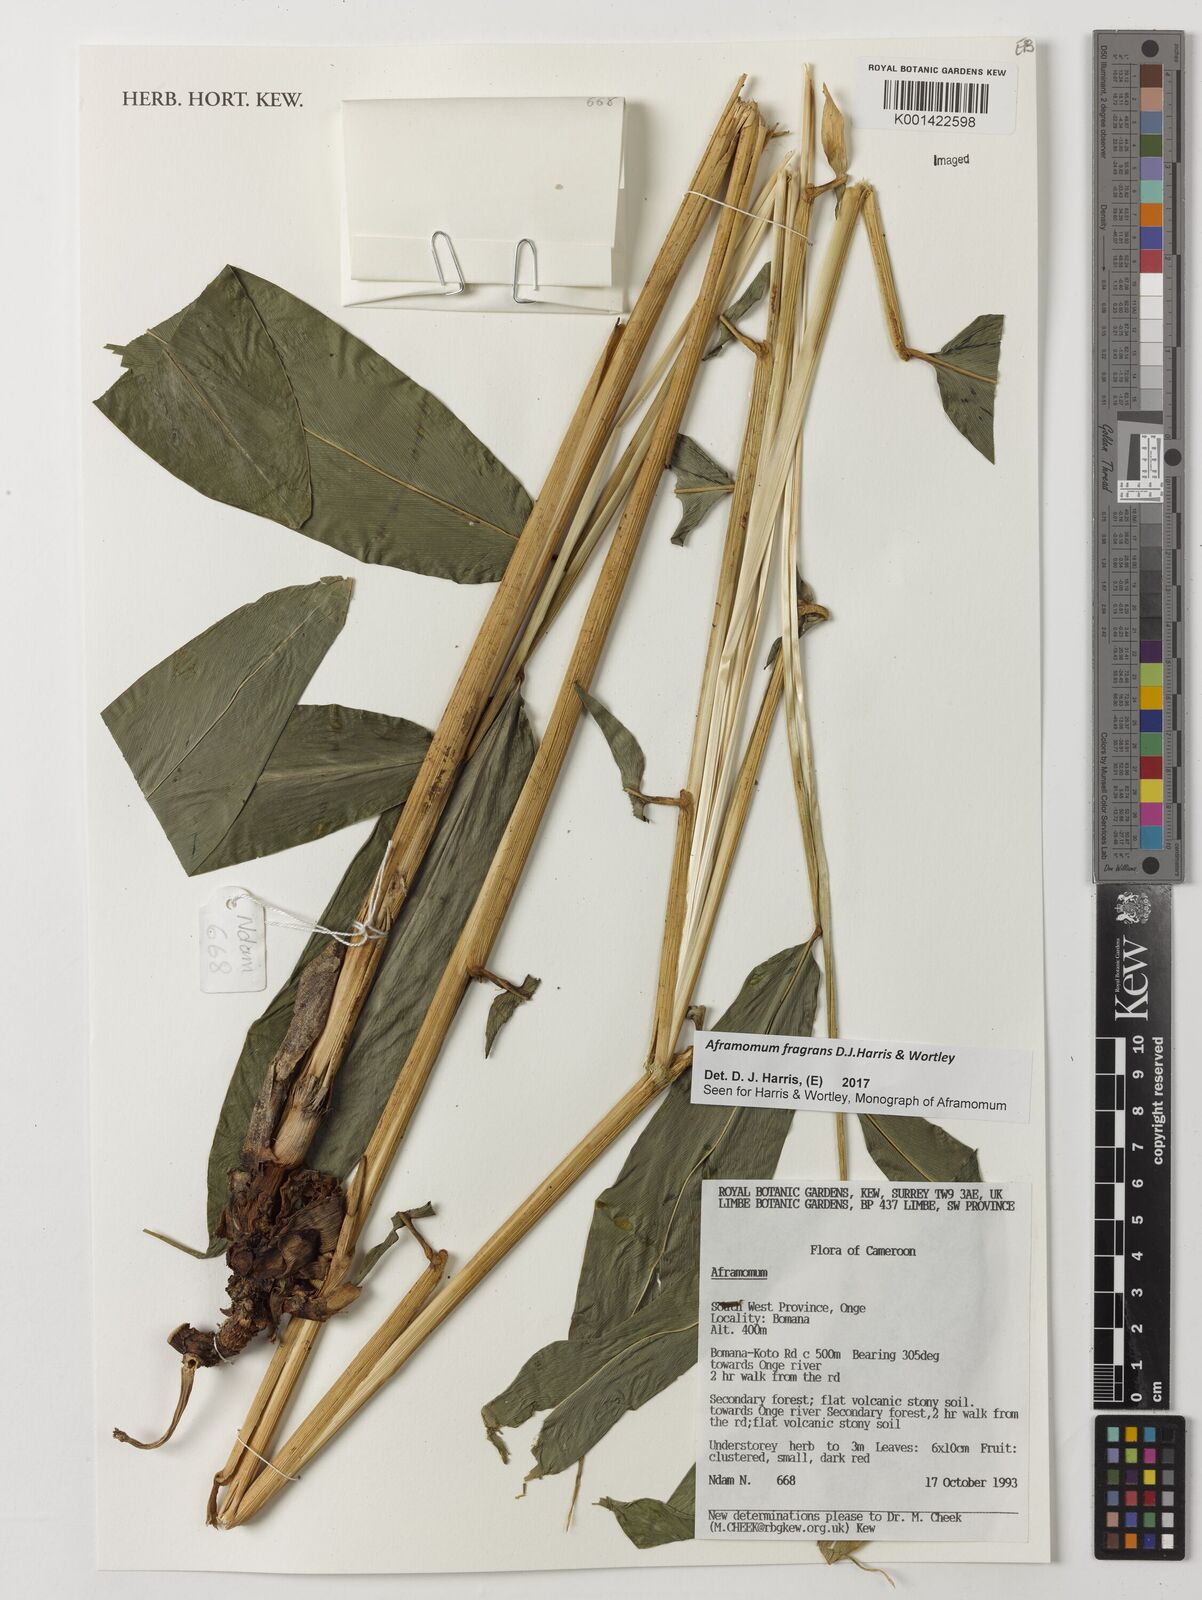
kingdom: Plantae
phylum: Tracheophyta
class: Liliopsida
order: Zingiberales
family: Zingiberaceae
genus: Aframomum
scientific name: Aframomum fragrans
